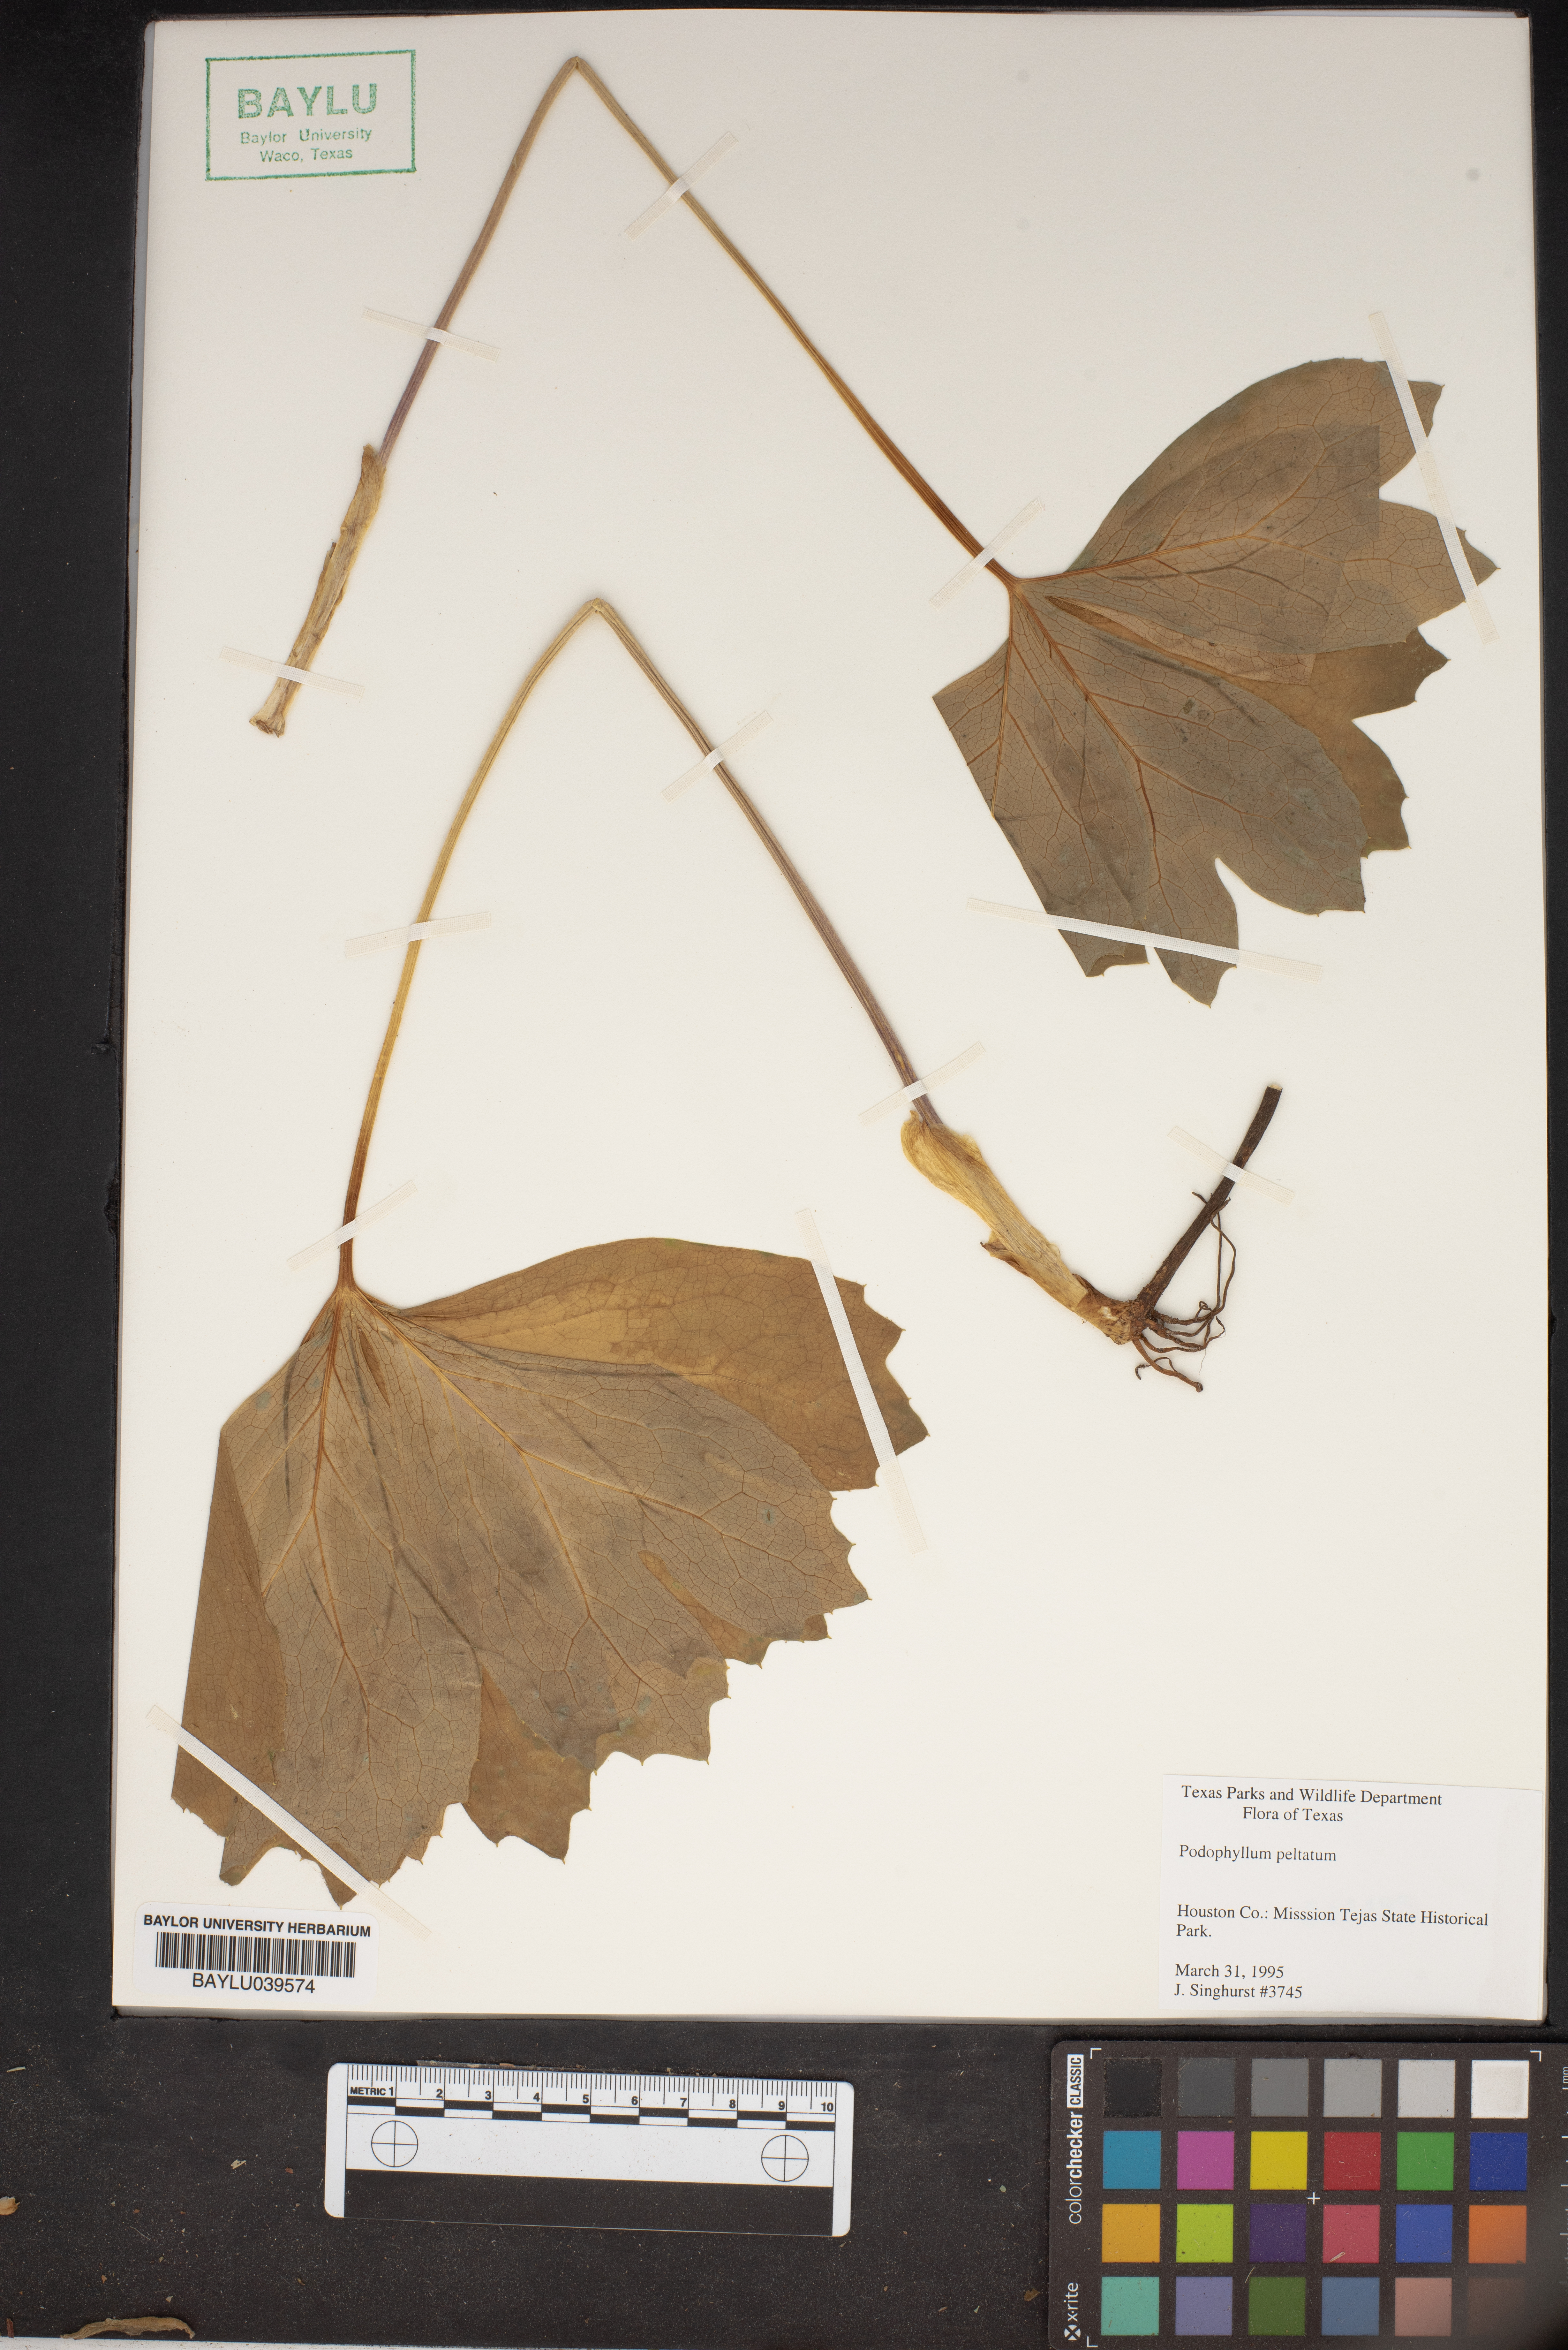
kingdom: Plantae
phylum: Tracheophyta
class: Magnoliopsida
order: Ranunculales
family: Berberidaceae
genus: Podophyllum
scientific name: Podophyllum peltatum
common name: Wild mandrake
